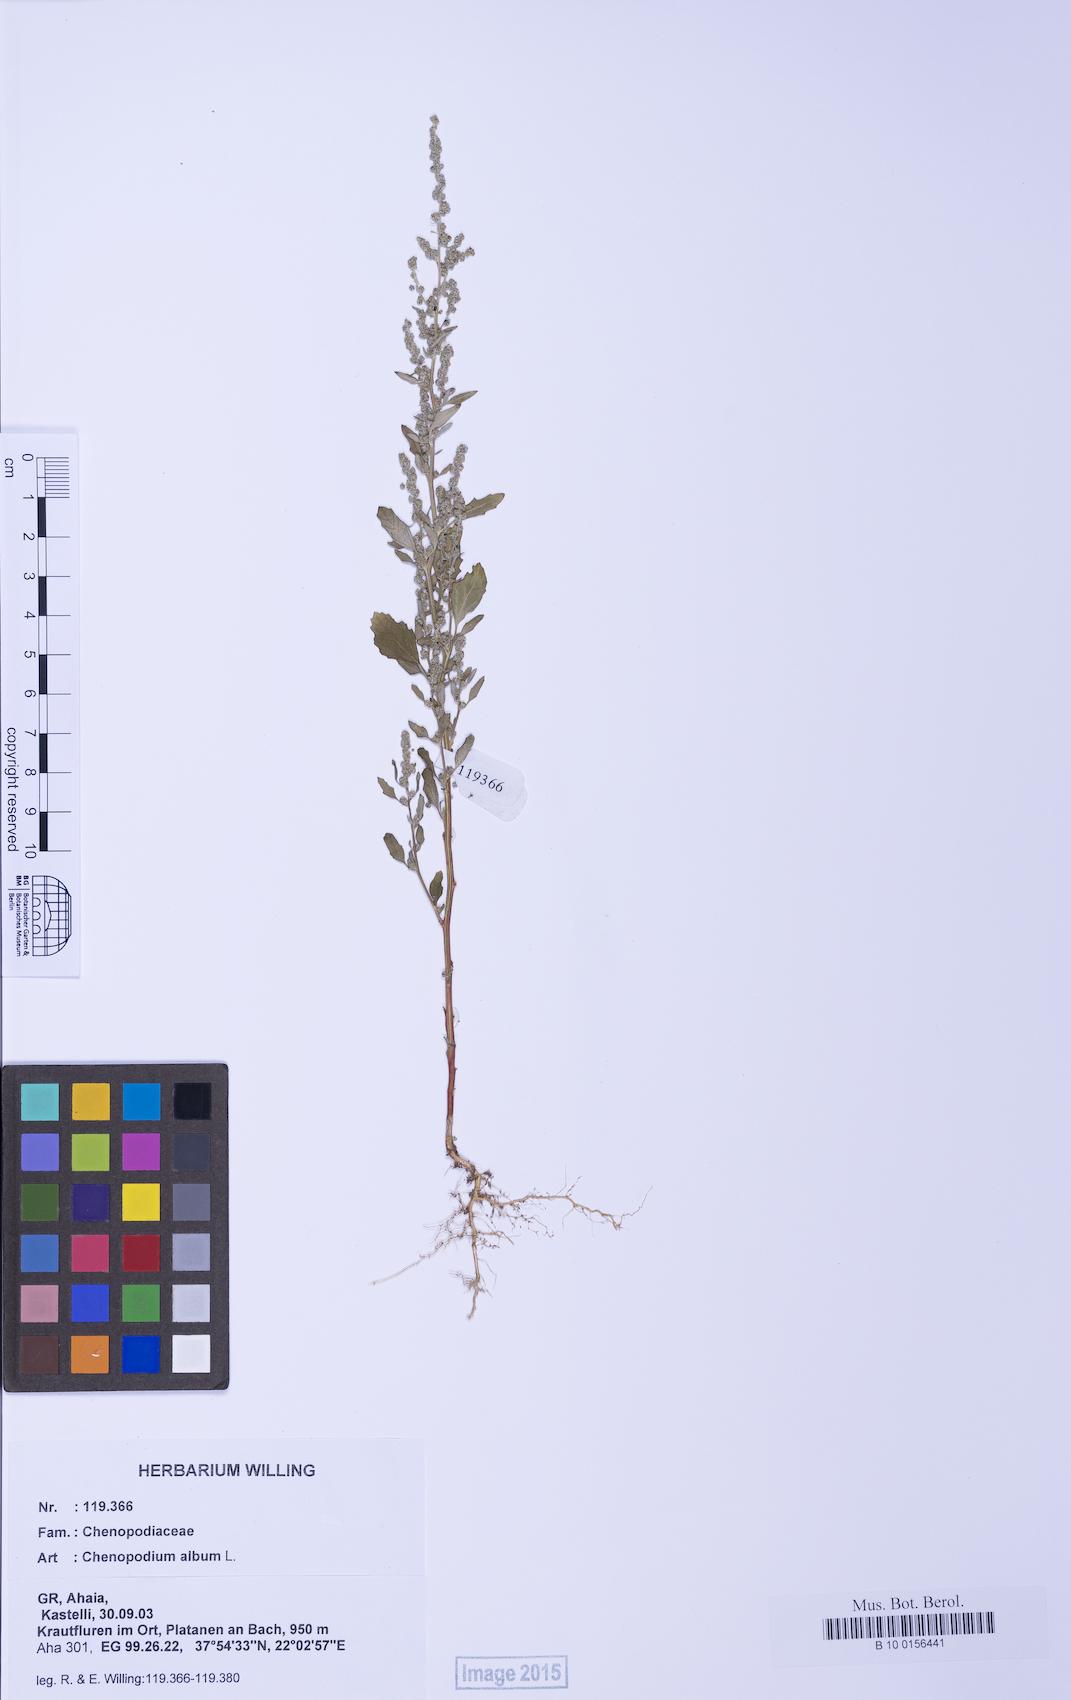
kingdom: Plantae
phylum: Tracheophyta
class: Magnoliopsida
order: Caryophyllales
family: Amaranthaceae
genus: Chenopodium
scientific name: Chenopodium album
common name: Fat-hen
